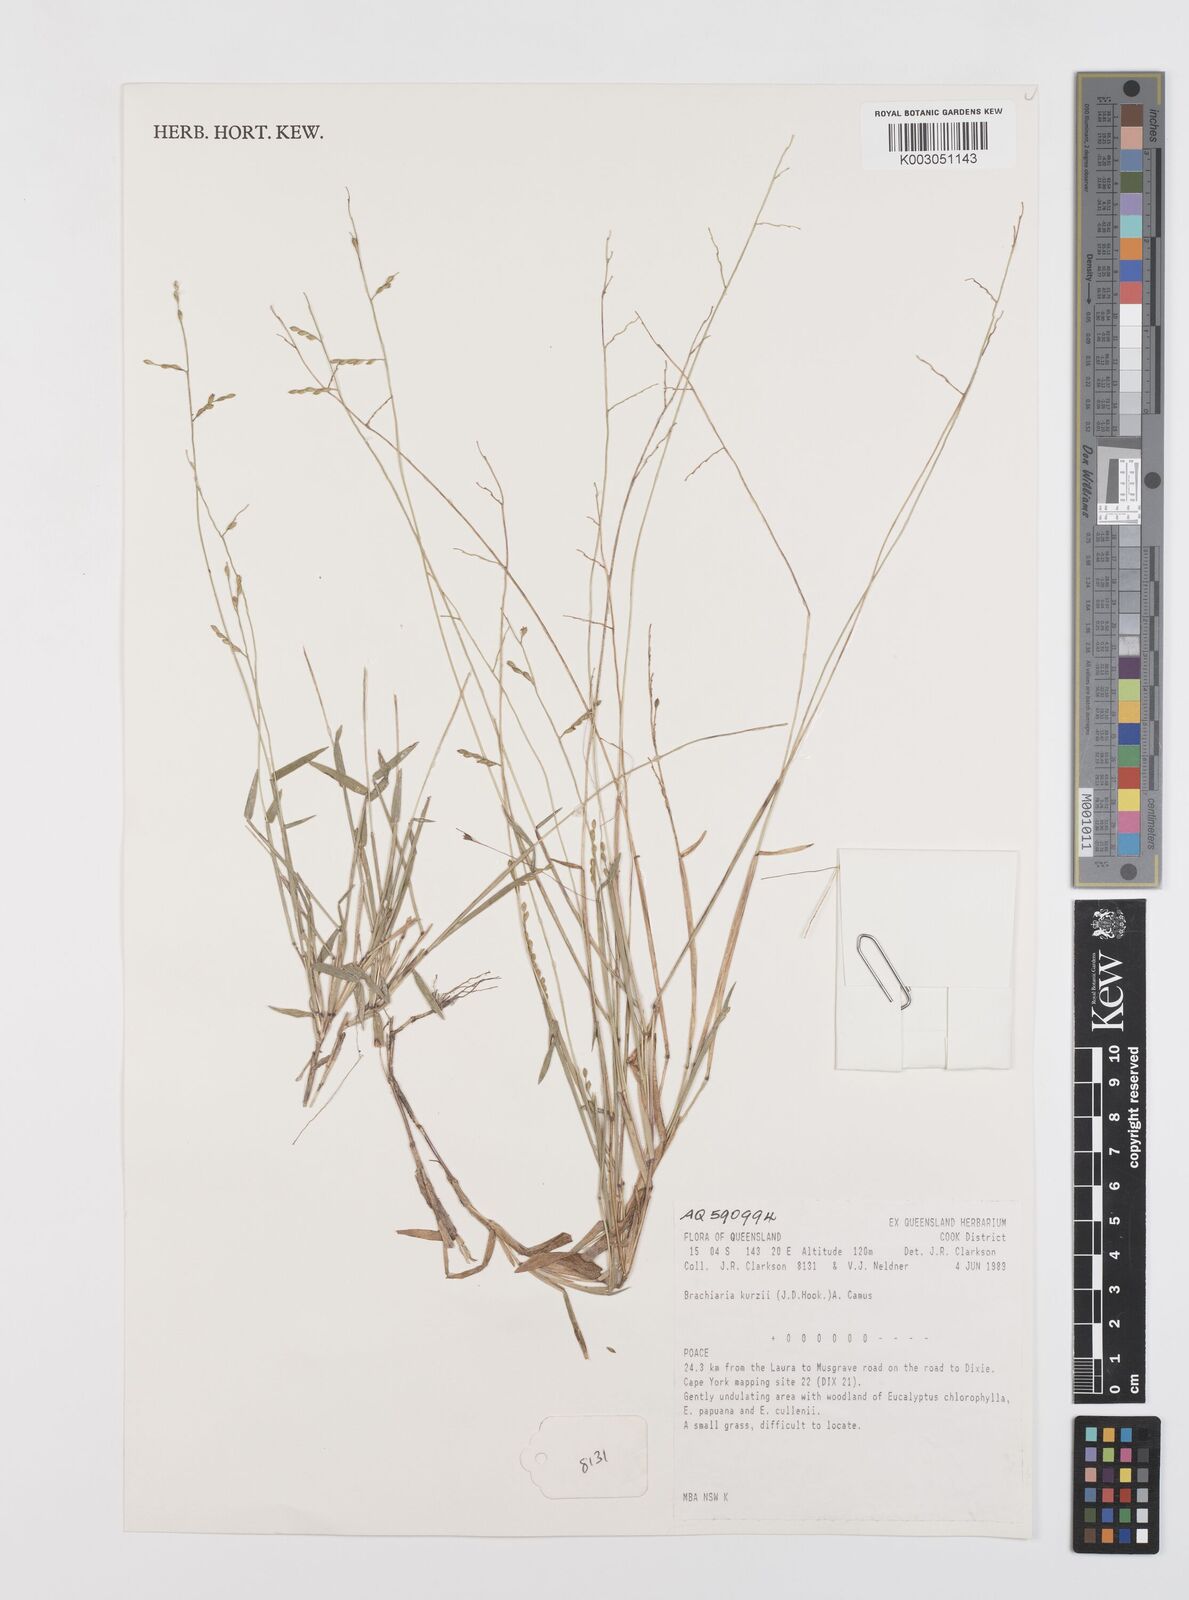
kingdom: Plantae
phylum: Tracheophyta
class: Liliopsida
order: Poales
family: Poaceae
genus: Urochloa
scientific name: Urochloa kurzii
